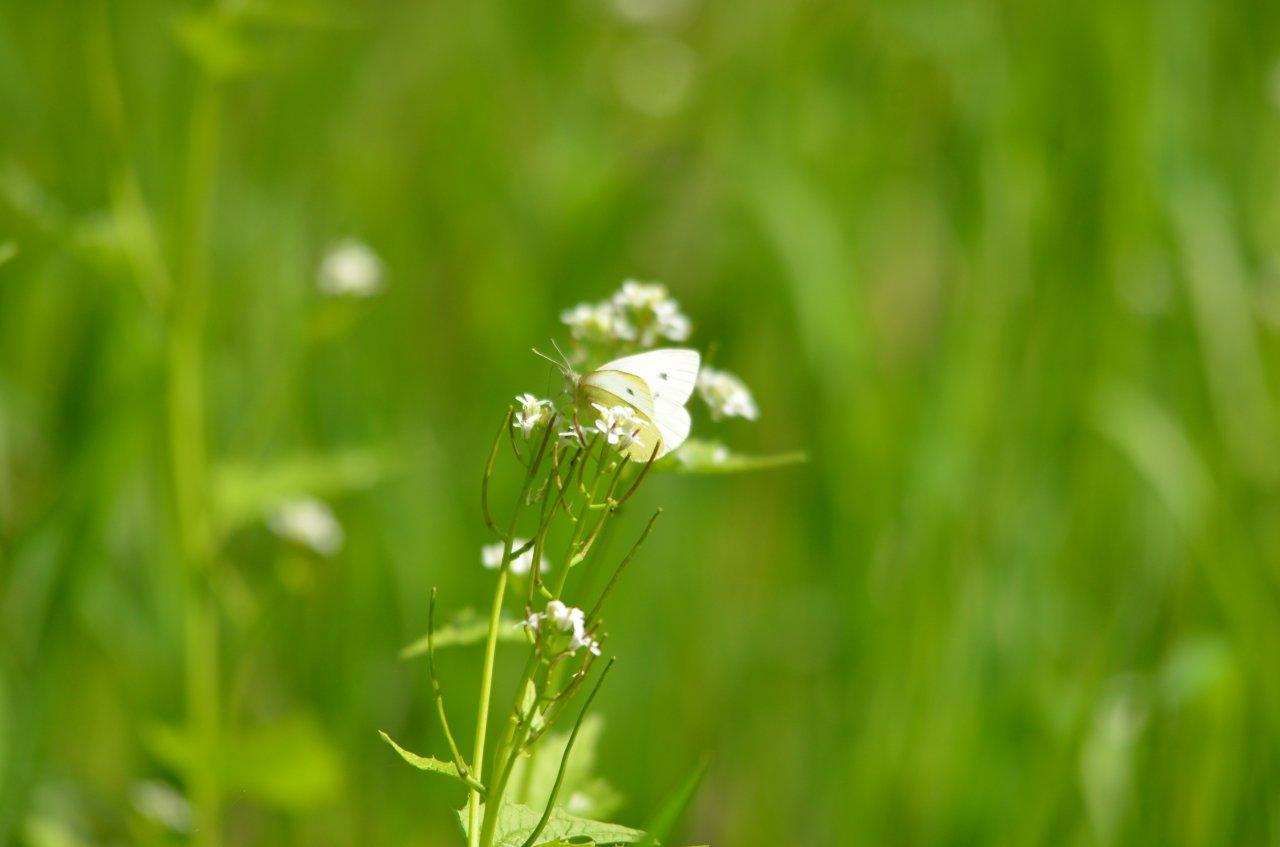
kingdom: Animalia
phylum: Arthropoda
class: Insecta
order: Lepidoptera
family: Pieridae
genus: Pieris
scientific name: Pieris rapae
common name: Cabbage White
